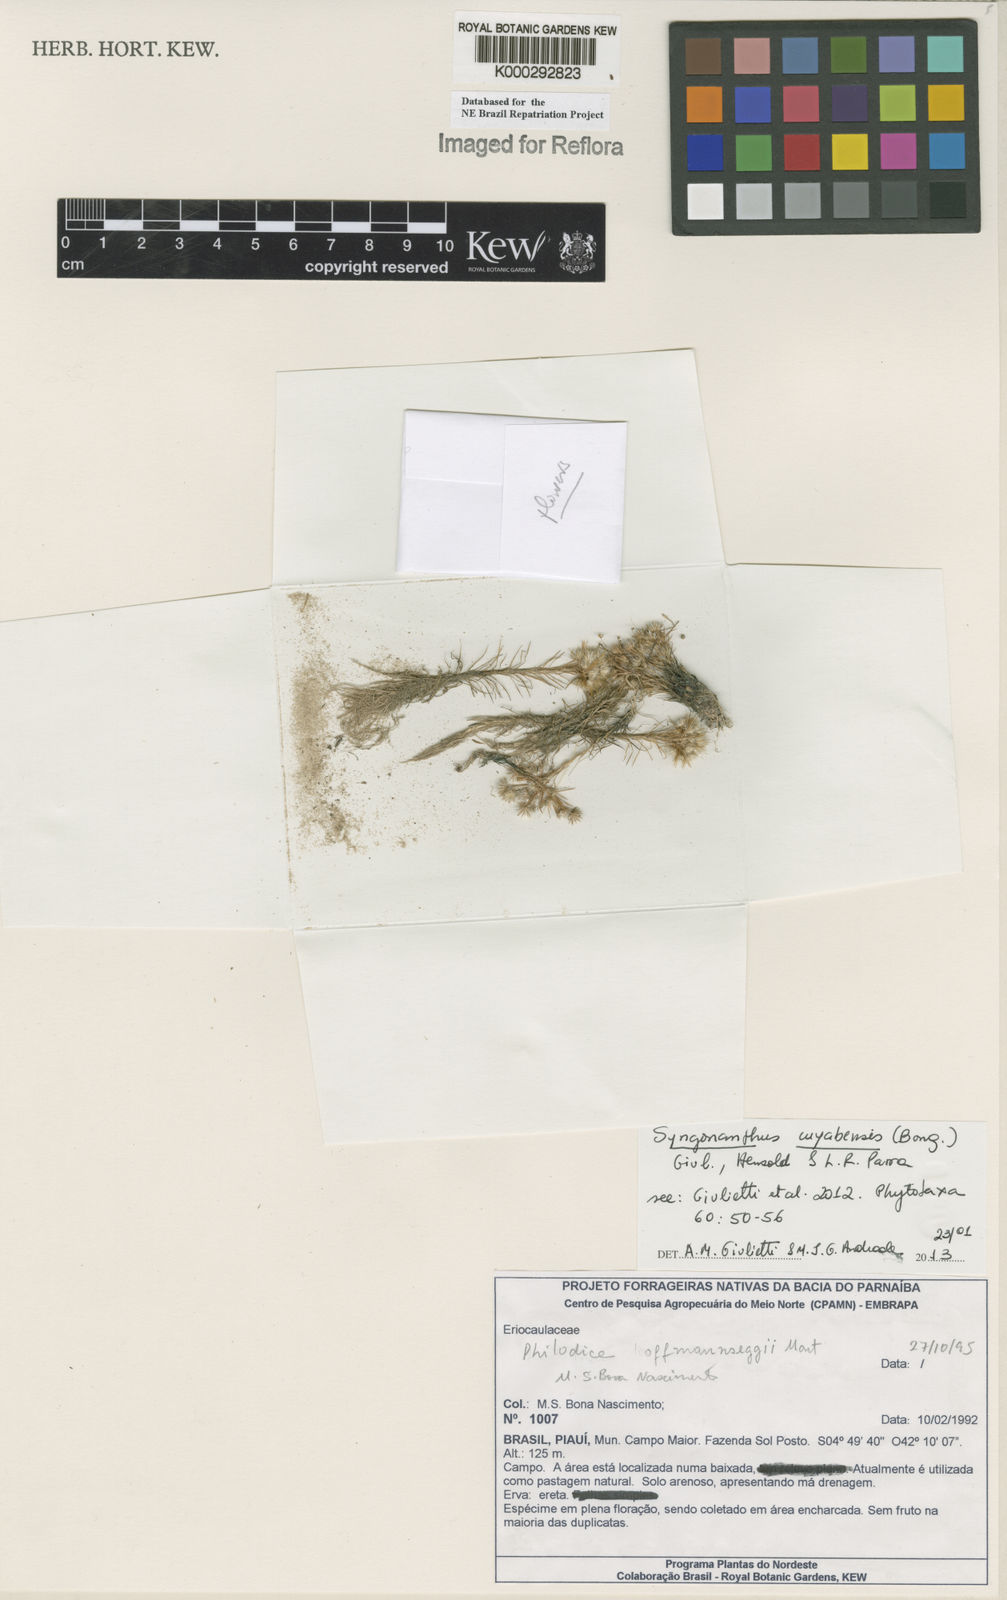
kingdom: Plantae
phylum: Tracheophyta
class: Liliopsida
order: Poales
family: Eriocaulaceae
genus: Syngonanthus
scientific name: Syngonanthus cuyabensis
